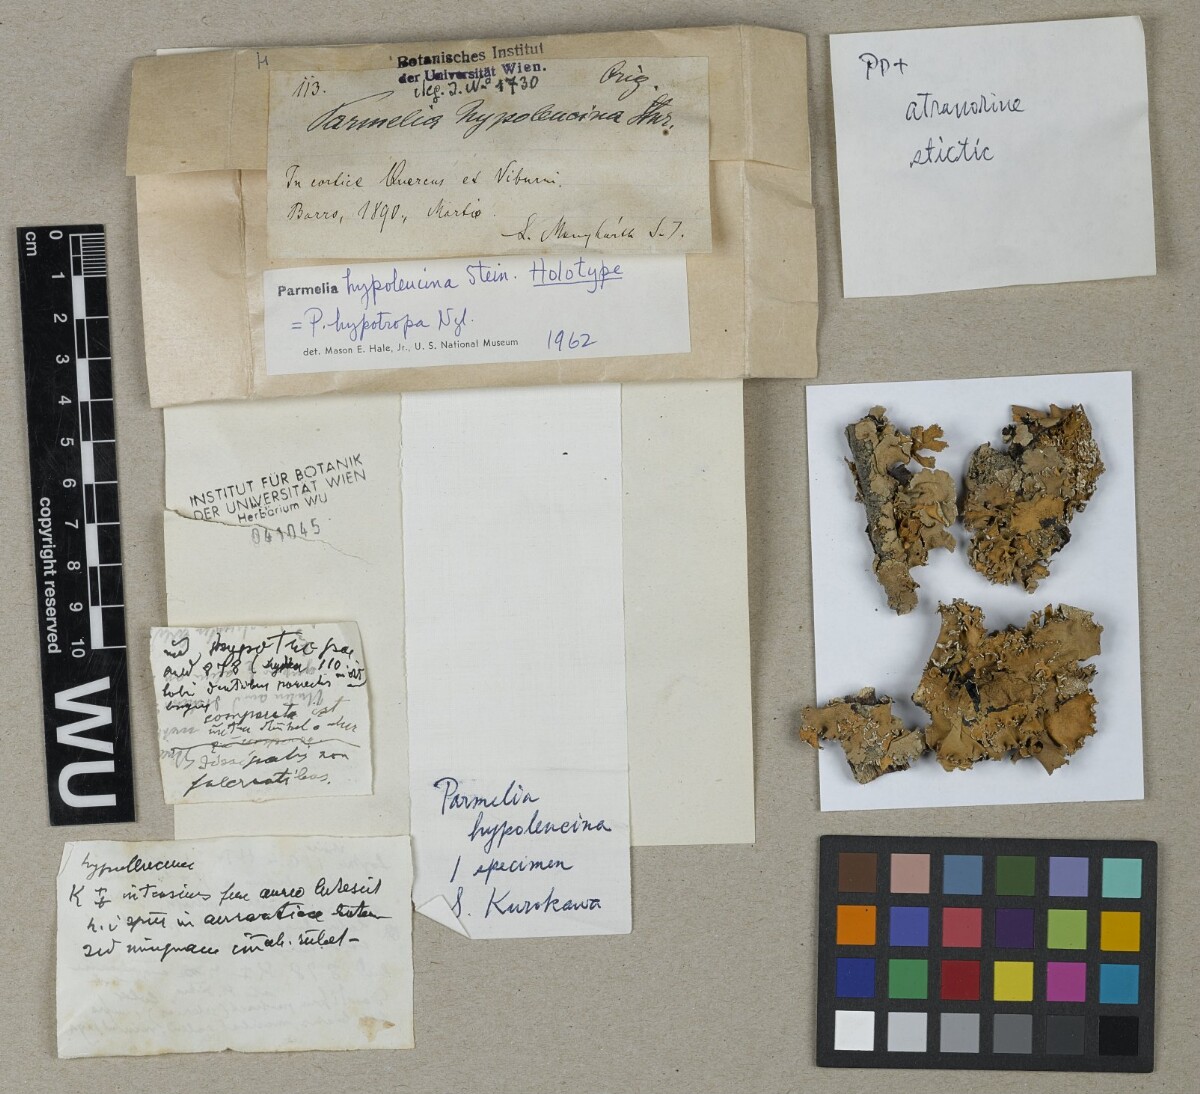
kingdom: Fungi
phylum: Ascomycota
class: Lecanoromycetes
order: Lecanorales
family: Parmeliaceae
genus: Parmotrema
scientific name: Parmotrema hypoleucinum
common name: Lacy powdered-ruffle
